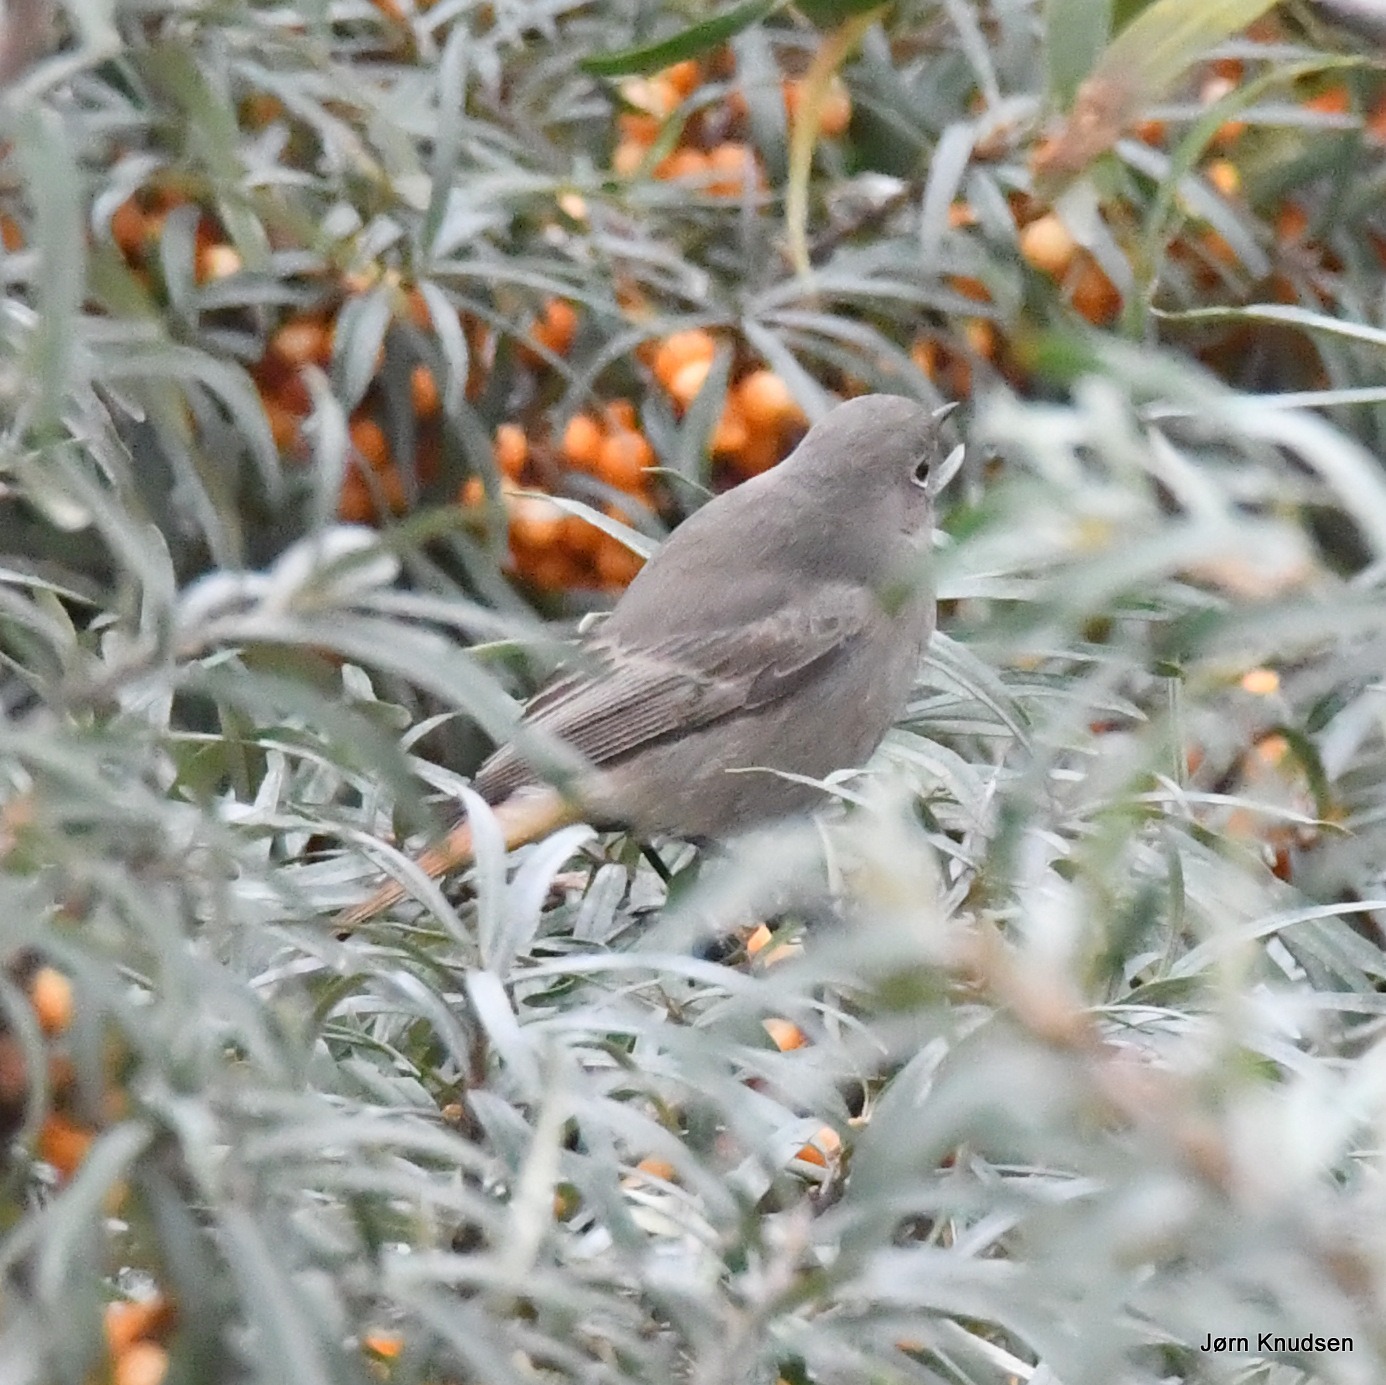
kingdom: Animalia
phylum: Chordata
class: Aves
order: Passeriformes
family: Muscicapidae
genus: Phoenicurus
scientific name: Phoenicurus ochruros
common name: Husrødstjert
